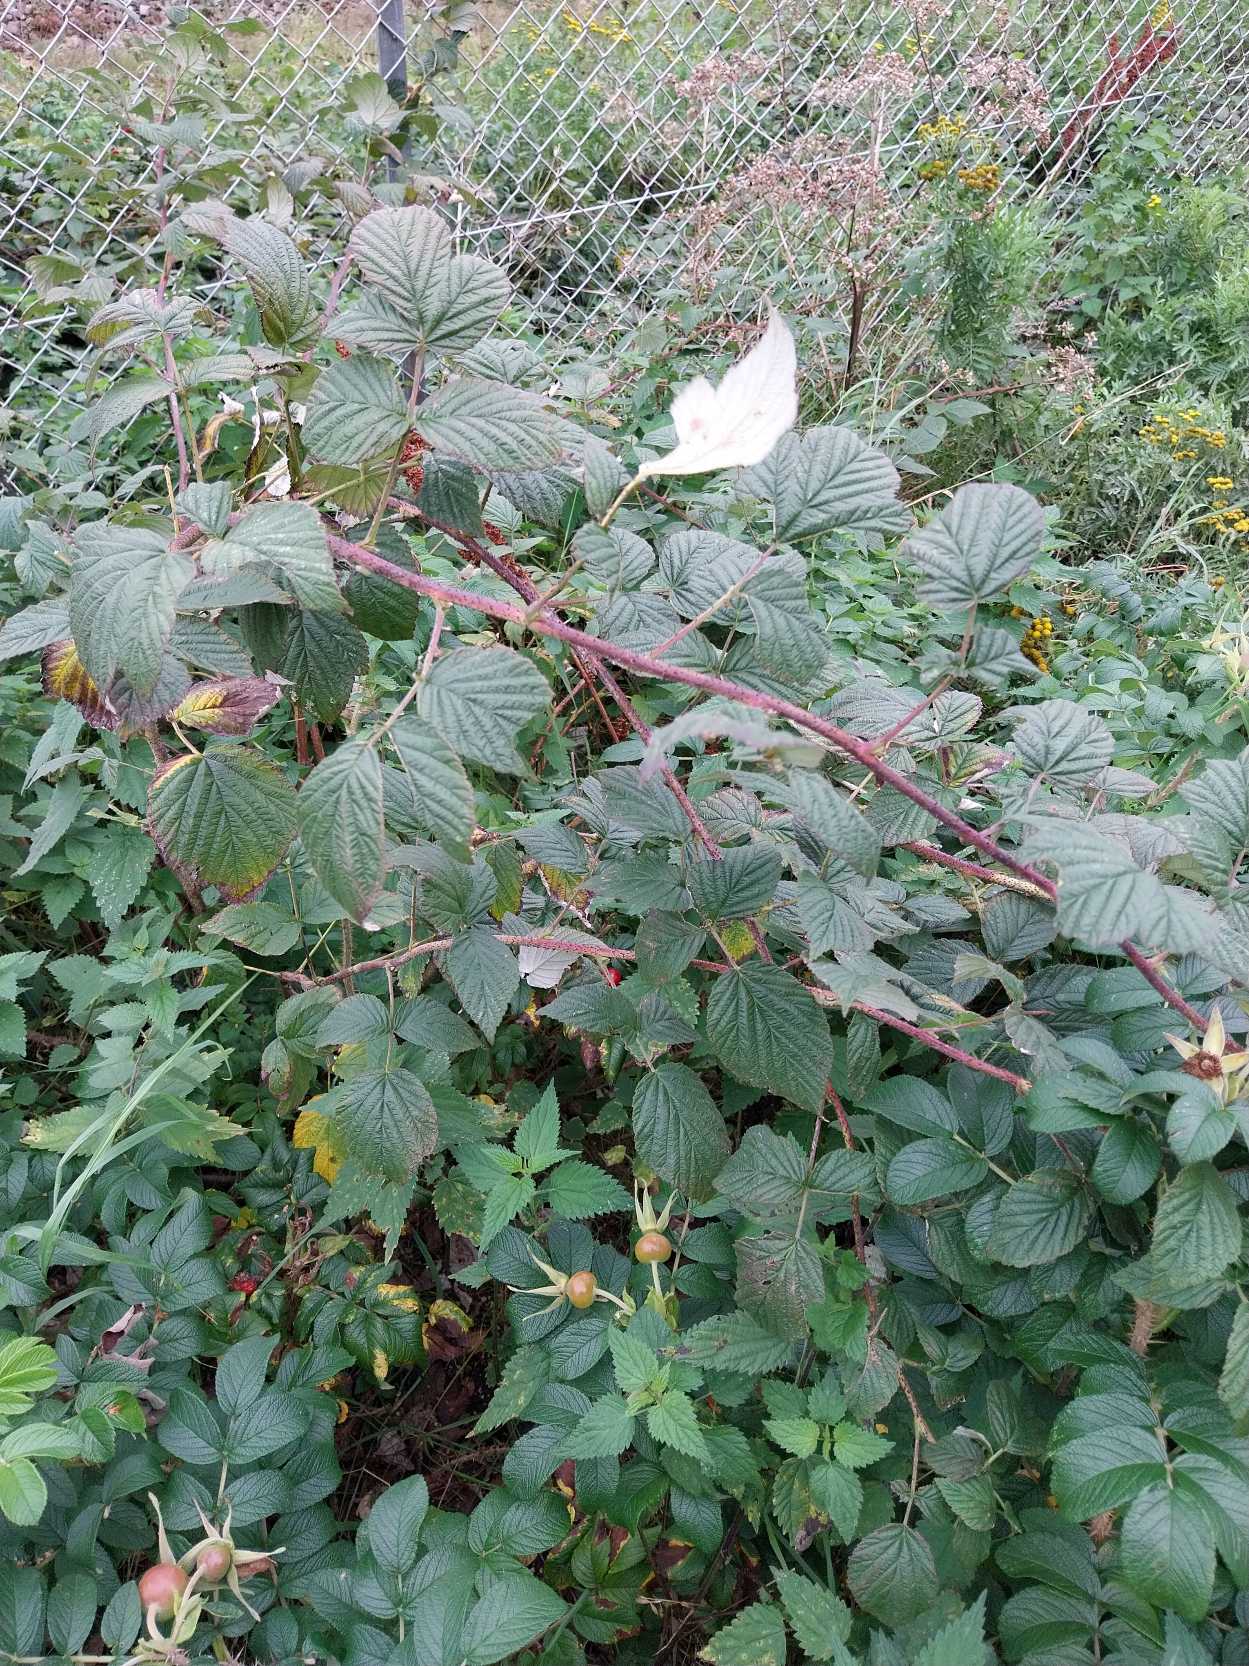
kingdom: Plantae
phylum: Tracheophyta
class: Magnoliopsida
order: Rosales
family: Rosaceae
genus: Rubus
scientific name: Rubus idaeus
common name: Hindbær
